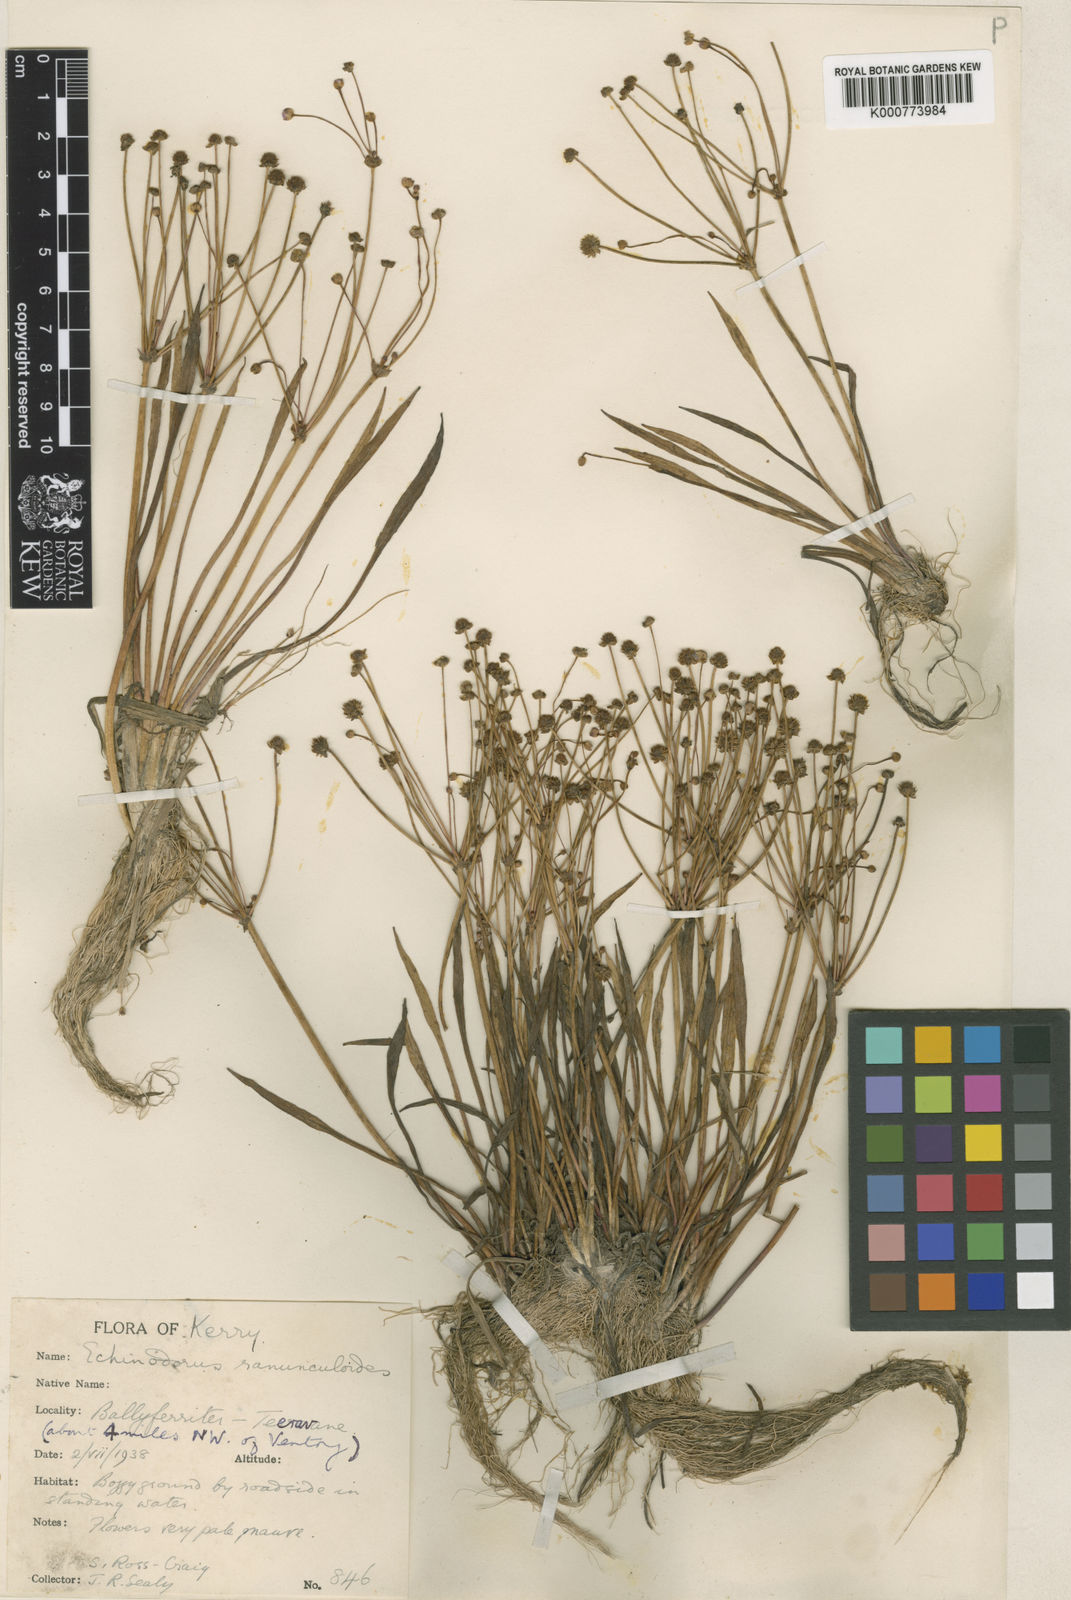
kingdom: Plantae
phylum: Tracheophyta
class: Liliopsida
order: Alismatales
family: Alismataceae
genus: Baldellia
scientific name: Baldellia ranunculoides
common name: Lesser water-plantain
